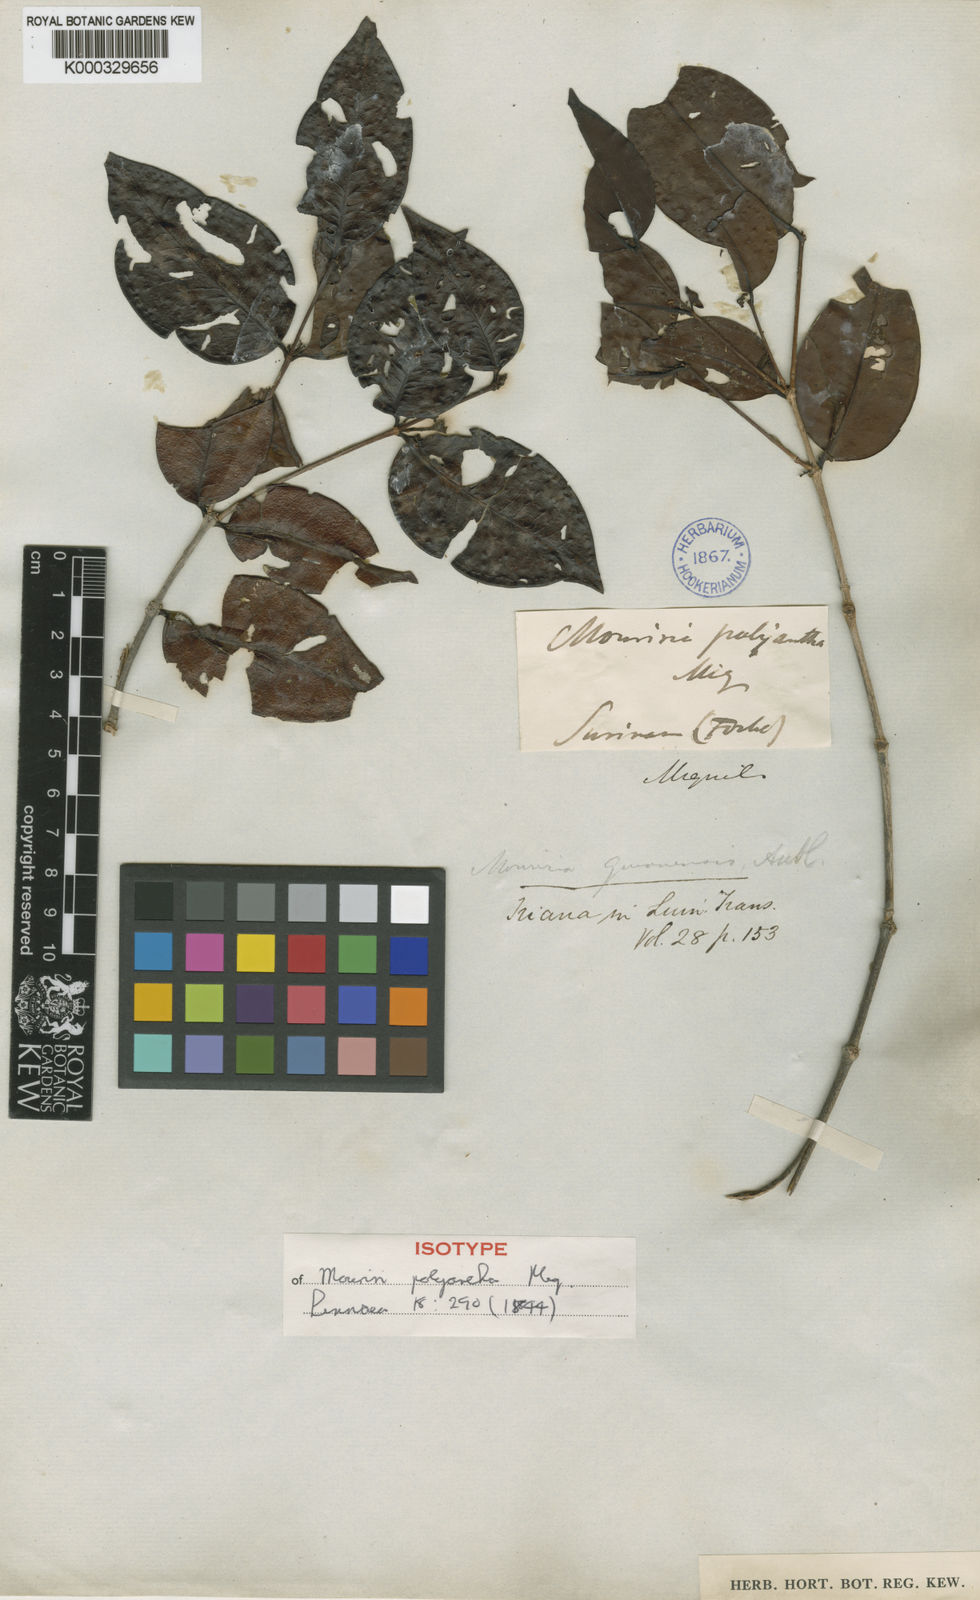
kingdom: Plantae
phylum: Tracheophyta
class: Magnoliopsida
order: Myrtales
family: Melastomataceae
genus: Mouriri
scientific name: Mouriri guianensis
